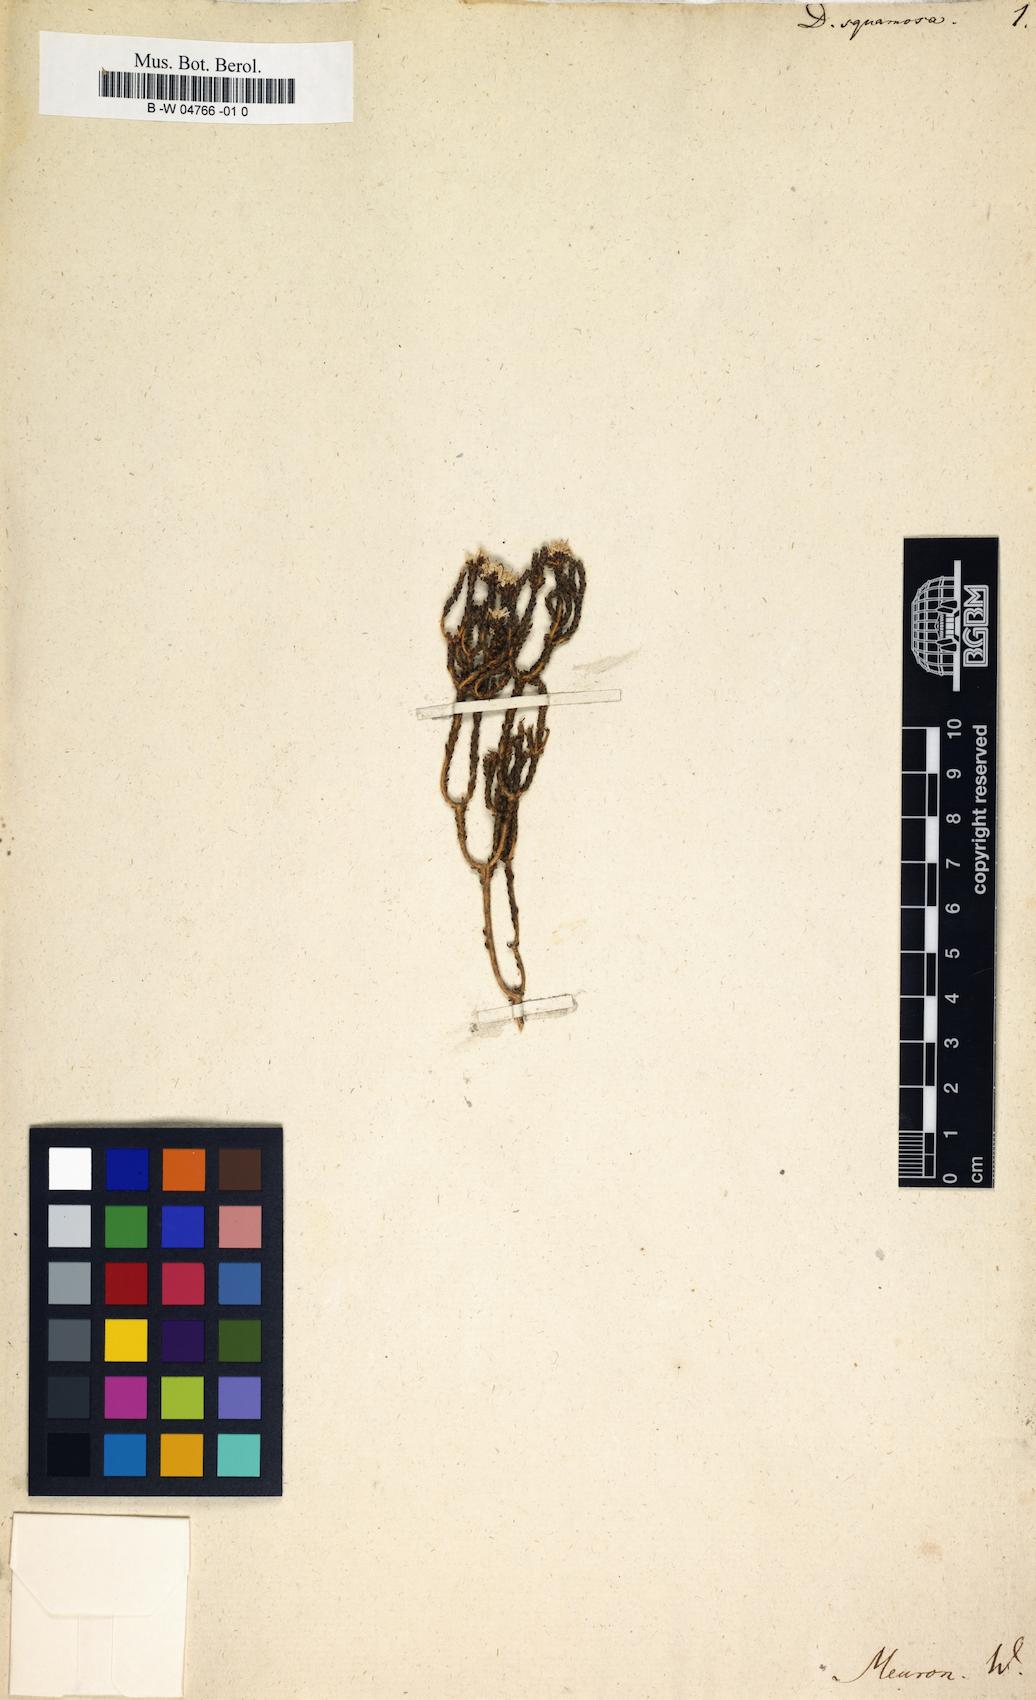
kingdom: Plantae
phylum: Tracheophyta
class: Magnoliopsida
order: Sapindales
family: Rutaceae
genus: Agathosma
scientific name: Agathosma squamosa
